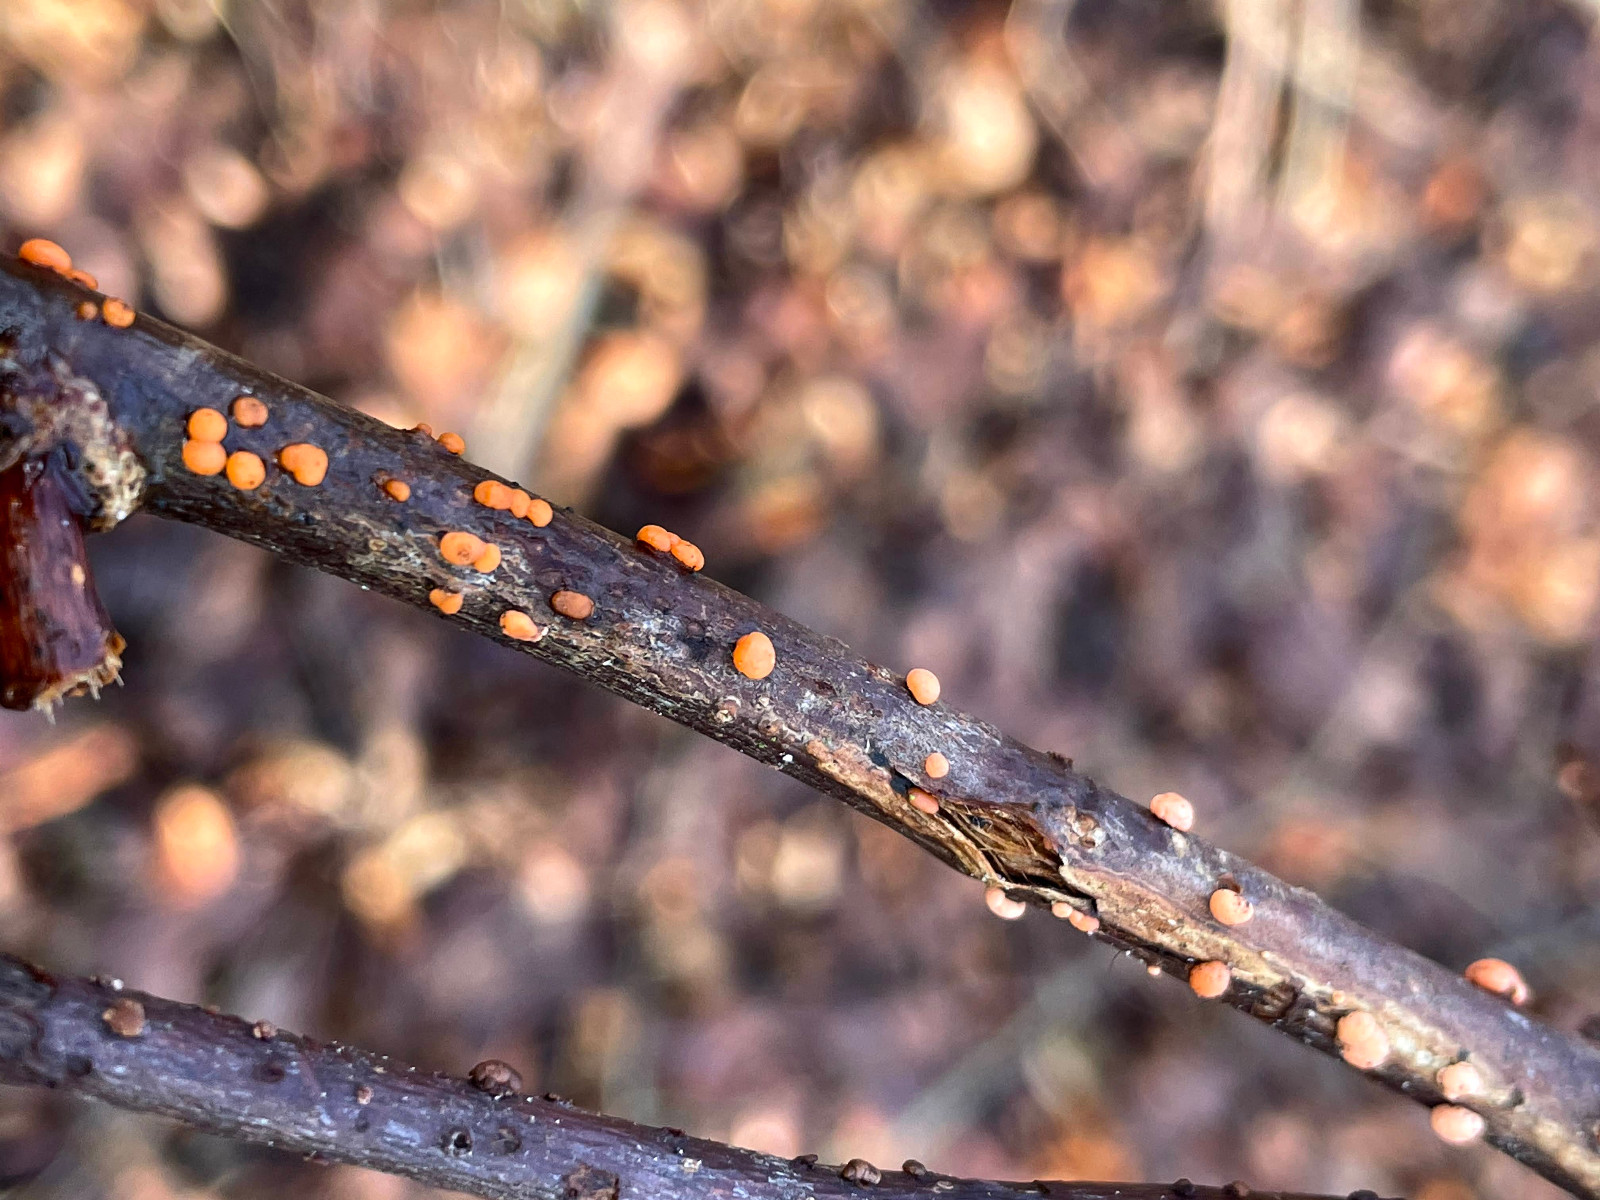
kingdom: Fungi
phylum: Ascomycota
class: Sordariomycetes
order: Hypocreales
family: Nectriaceae
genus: Nectria
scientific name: Nectria cinnabarina
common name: almindelig cinnobersvamp
